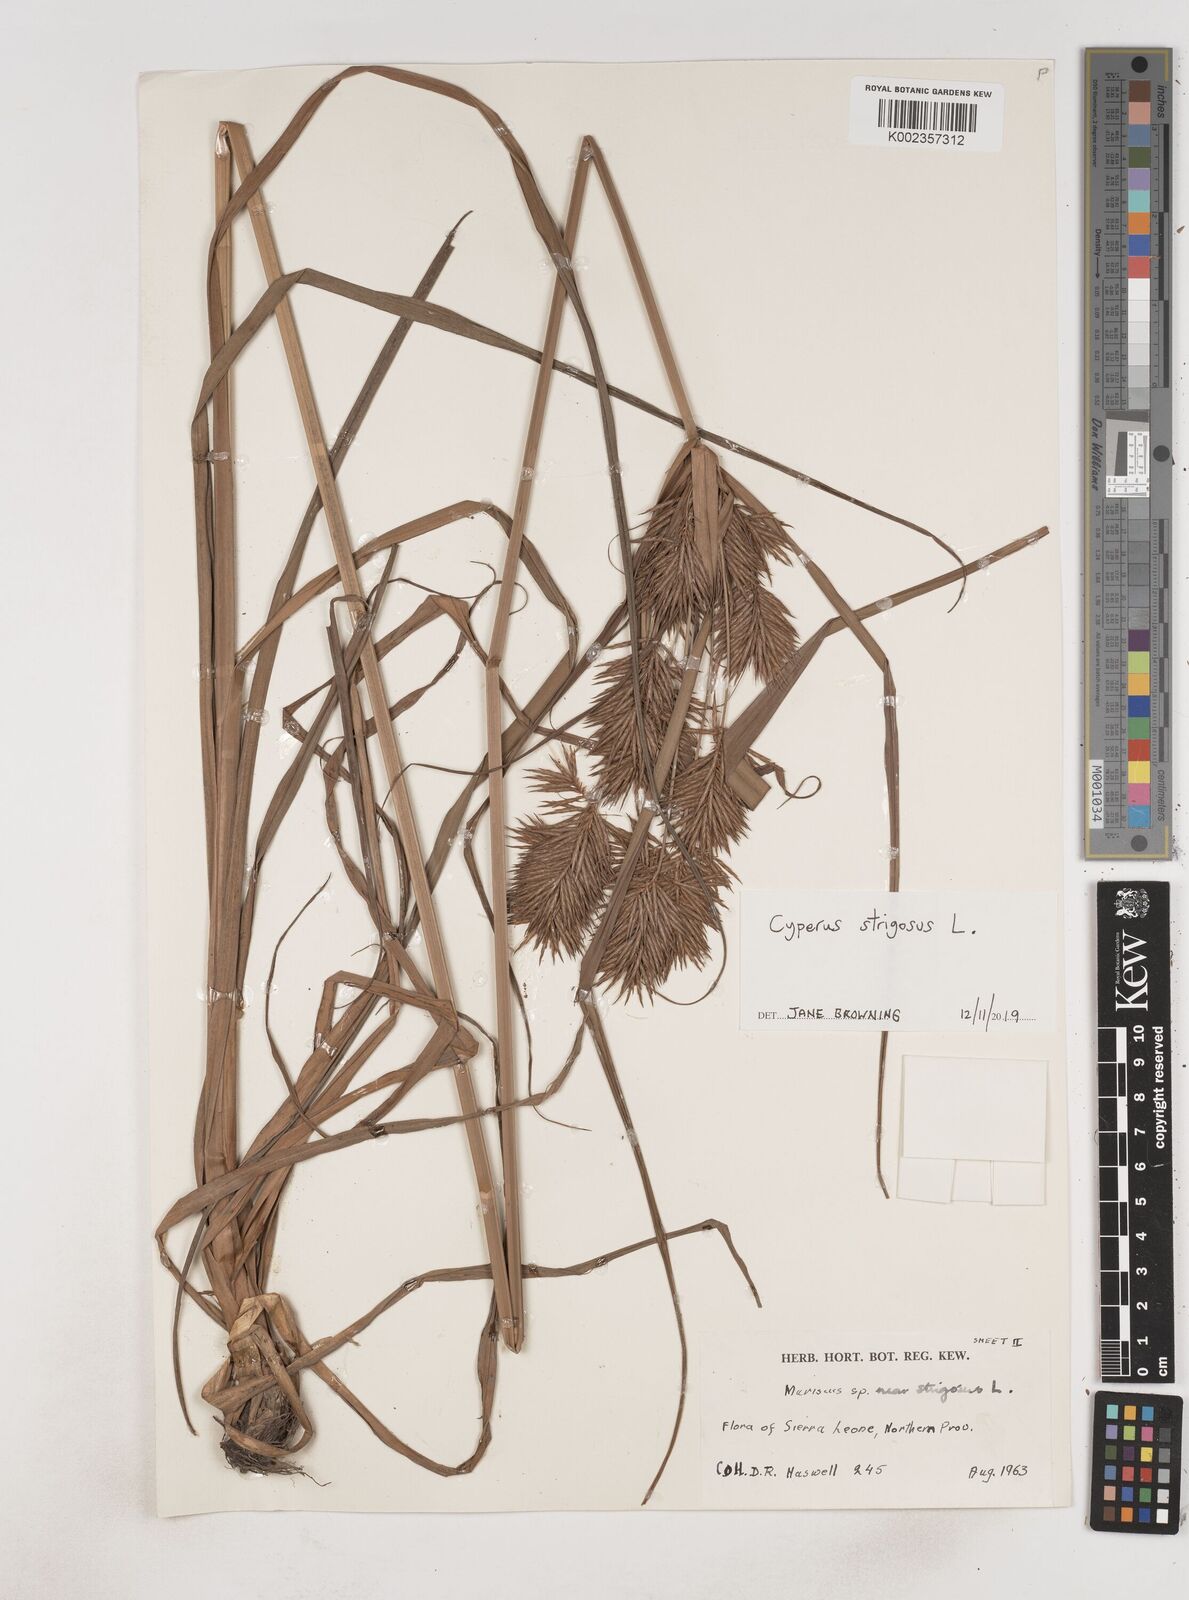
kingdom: Plantae
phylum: Tracheophyta
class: Liliopsida
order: Poales
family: Cyperaceae
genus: Cyperus
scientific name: Cyperus strigosus
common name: False nutsedge
